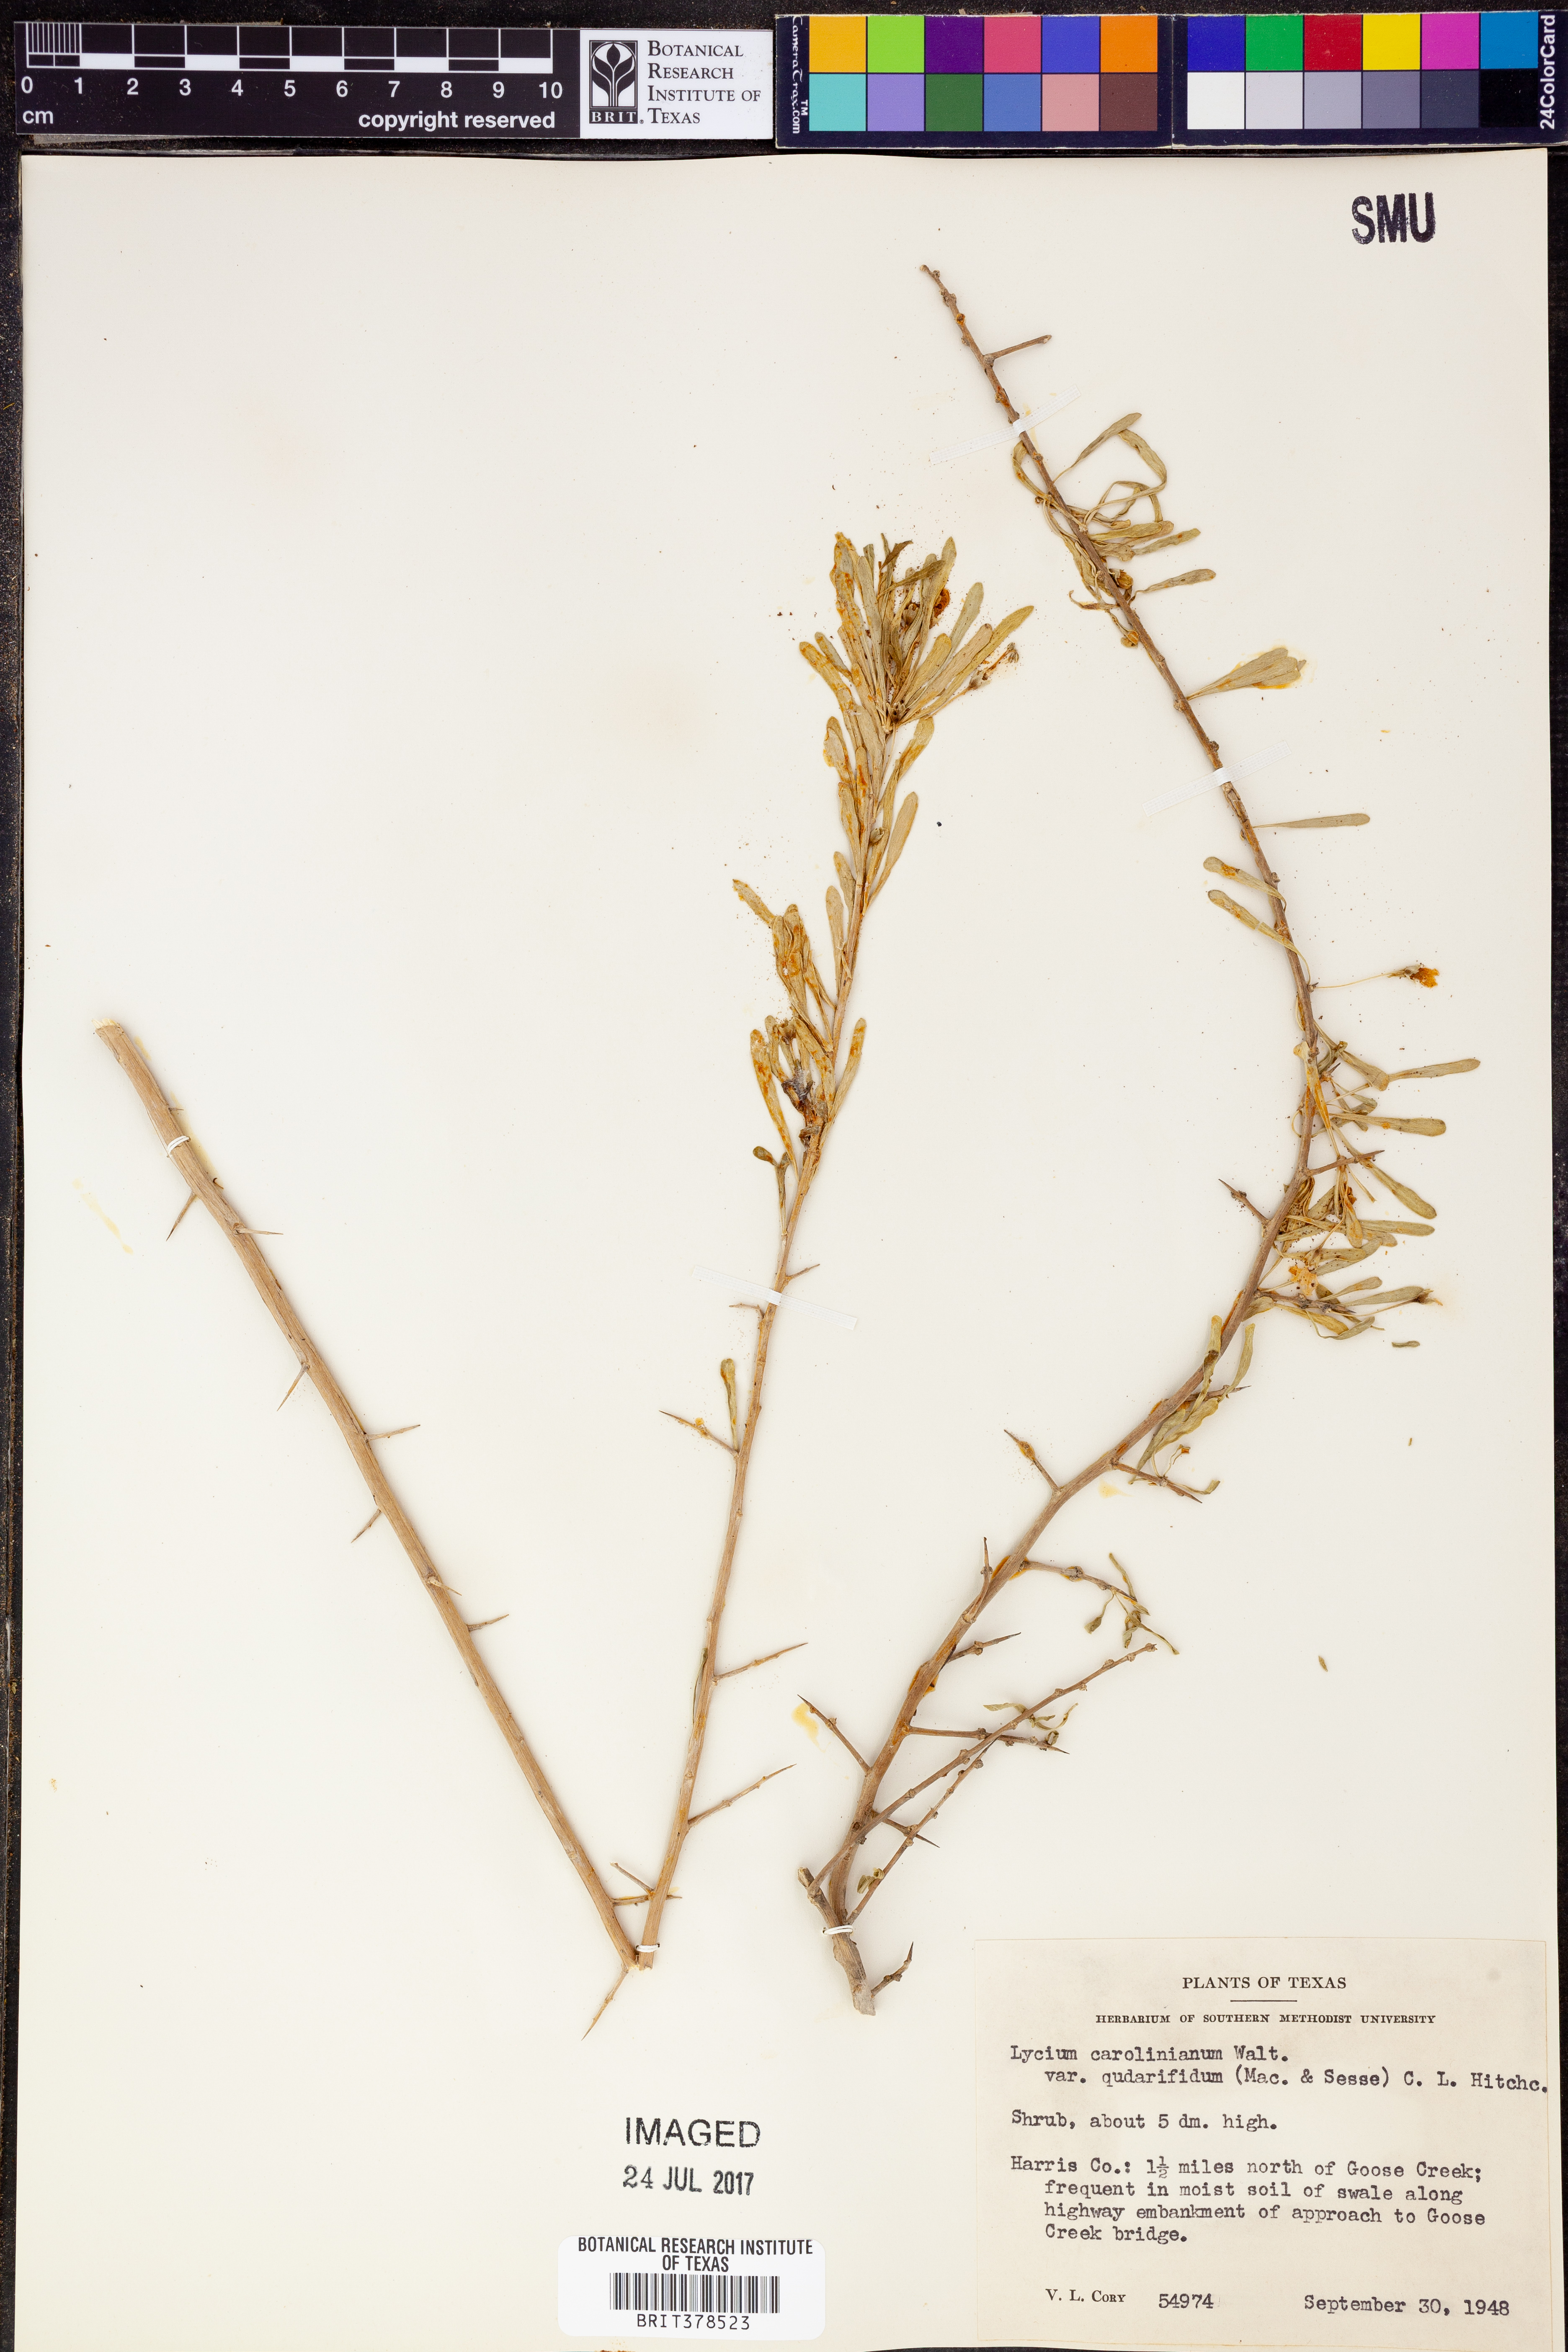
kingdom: Plantae
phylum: Tracheophyta
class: Magnoliopsida
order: Solanales
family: Solanaceae
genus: Lycium
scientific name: Lycium carolinianum
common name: Christmasberry
